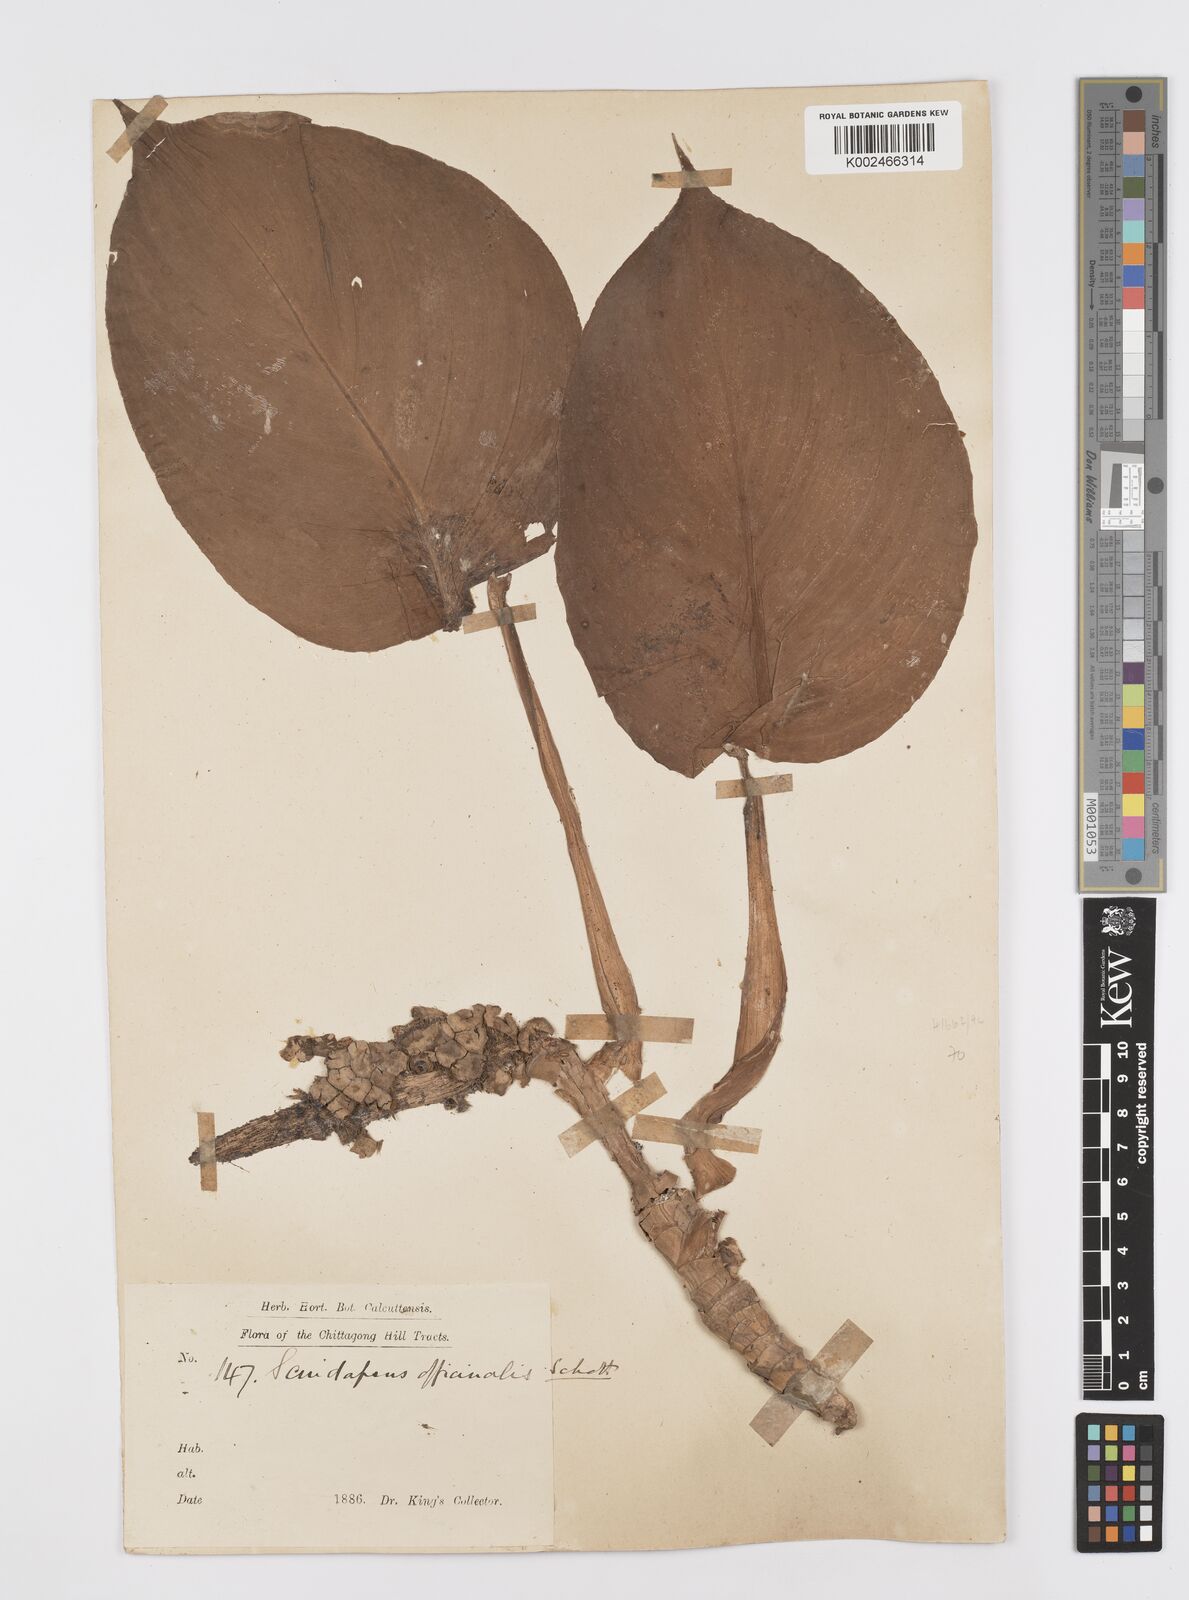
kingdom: Plantae
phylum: Tracheophyta
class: Liliopsida
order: Alismatales
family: Araceae
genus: Scindapsus
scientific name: Scindapsus officinalis
